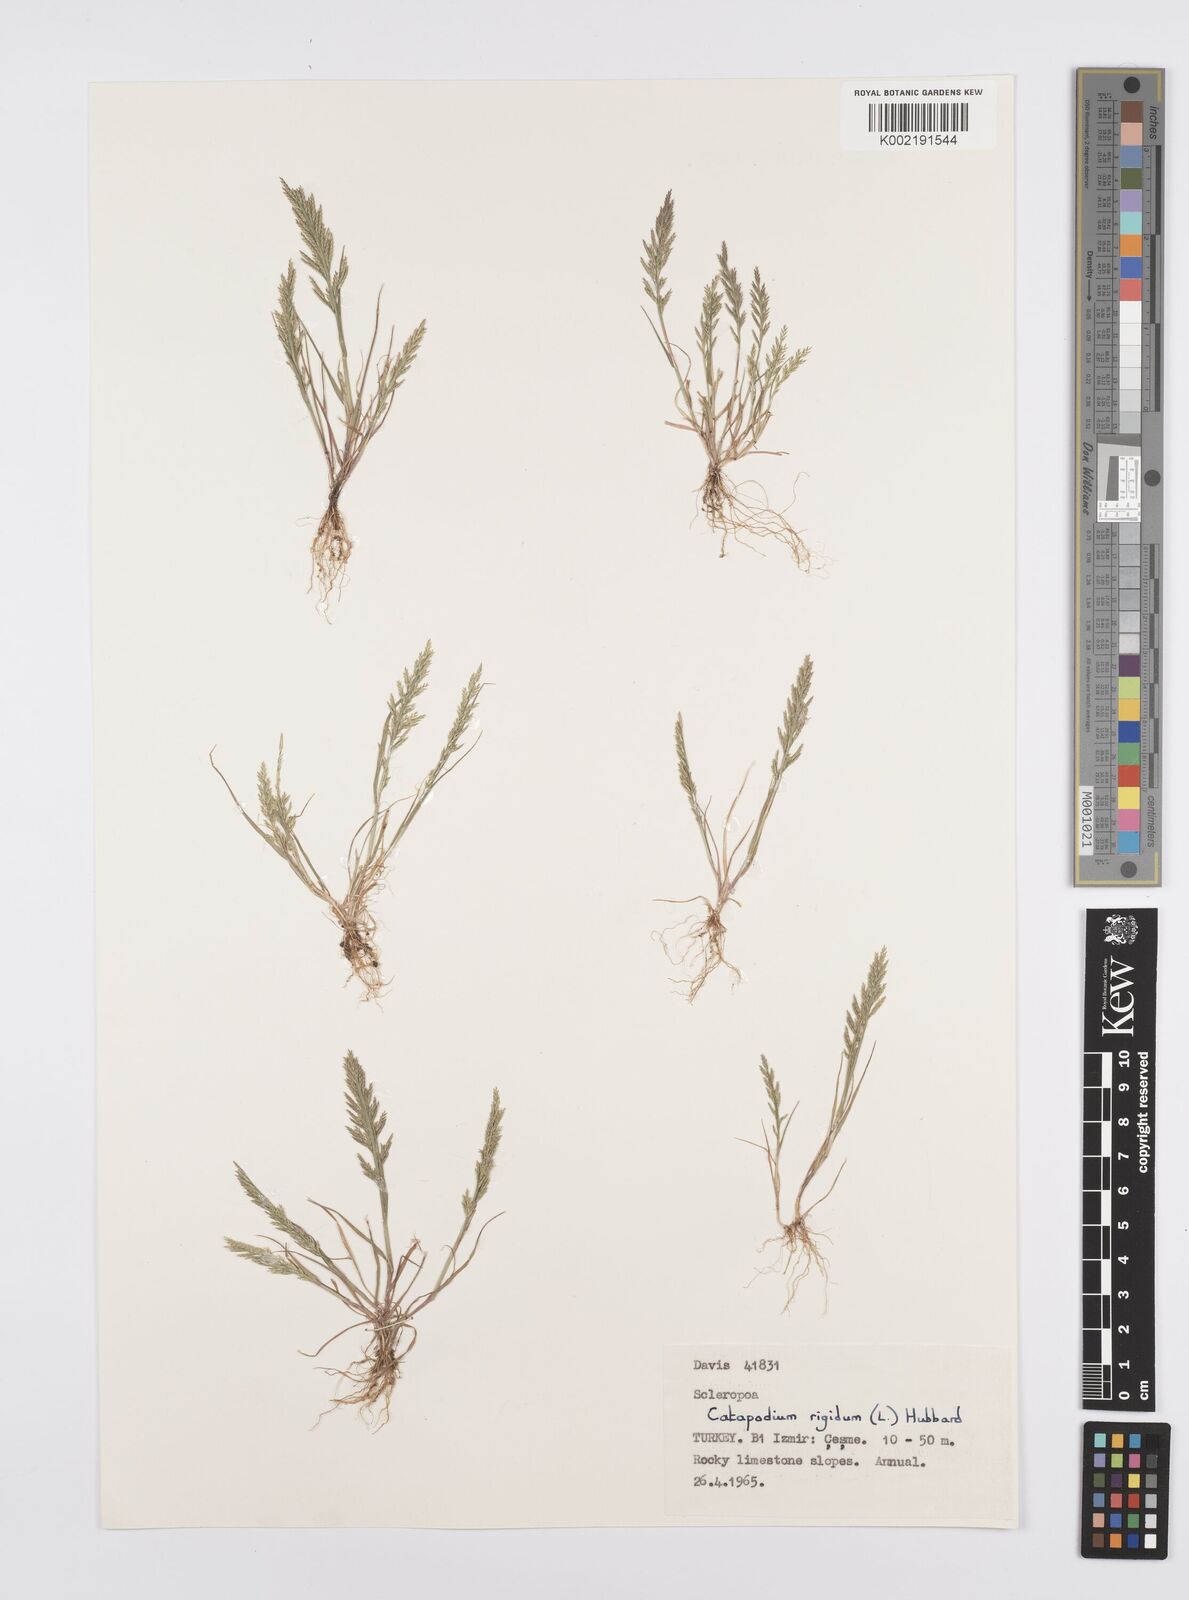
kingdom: Plantae
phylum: Tracheophyta
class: Liliopsida
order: Poales
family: Poaceae
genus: Catapodium
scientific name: Catapodium rigidum
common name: Fern-grass
